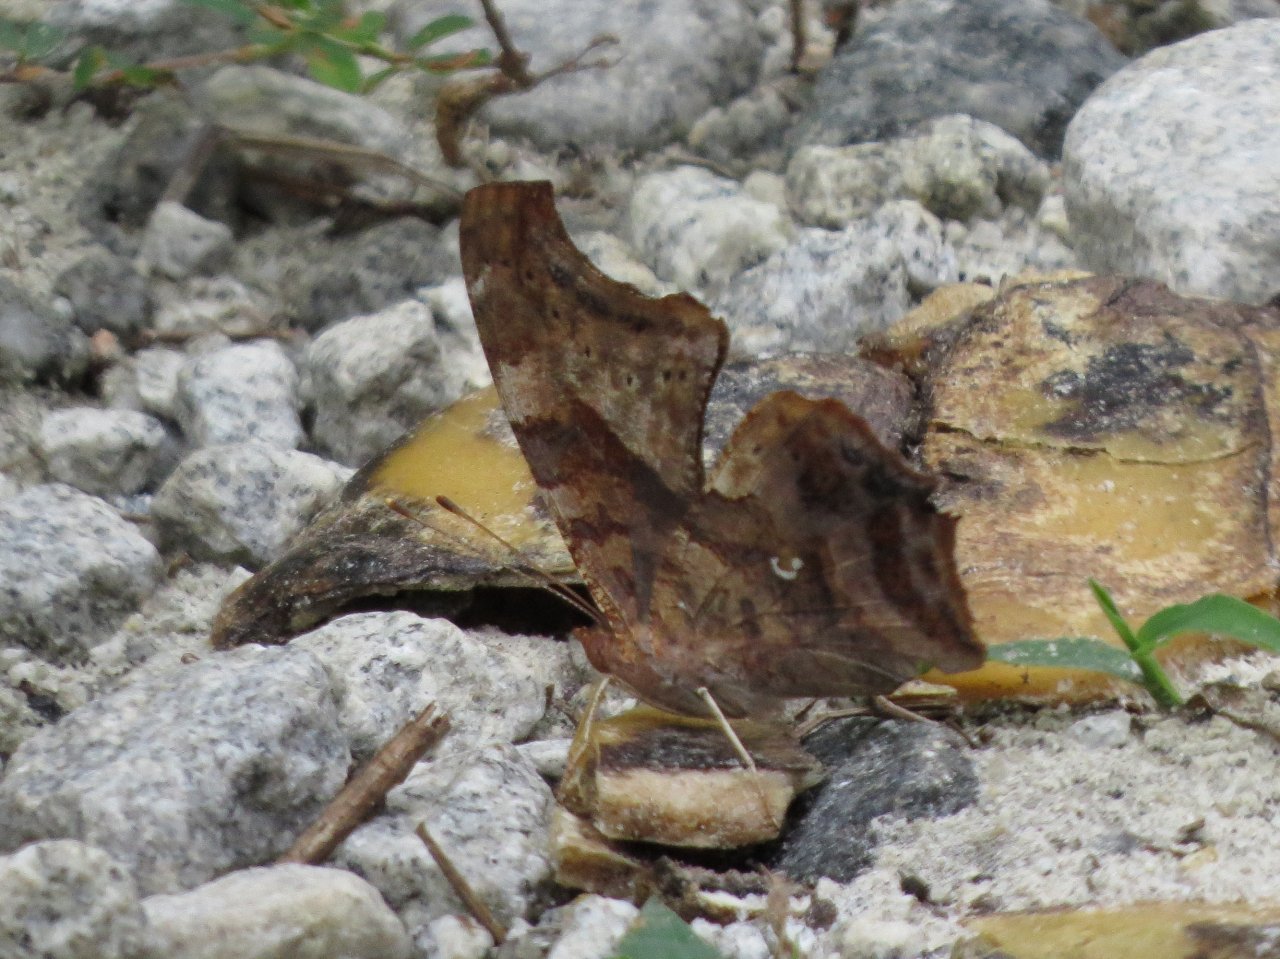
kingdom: Animalia
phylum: Arthropoda
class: Insecta
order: Lepidoptera
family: Nymphalidae
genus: Polygonia
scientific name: Polygonia interrogationis
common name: Question Mark
